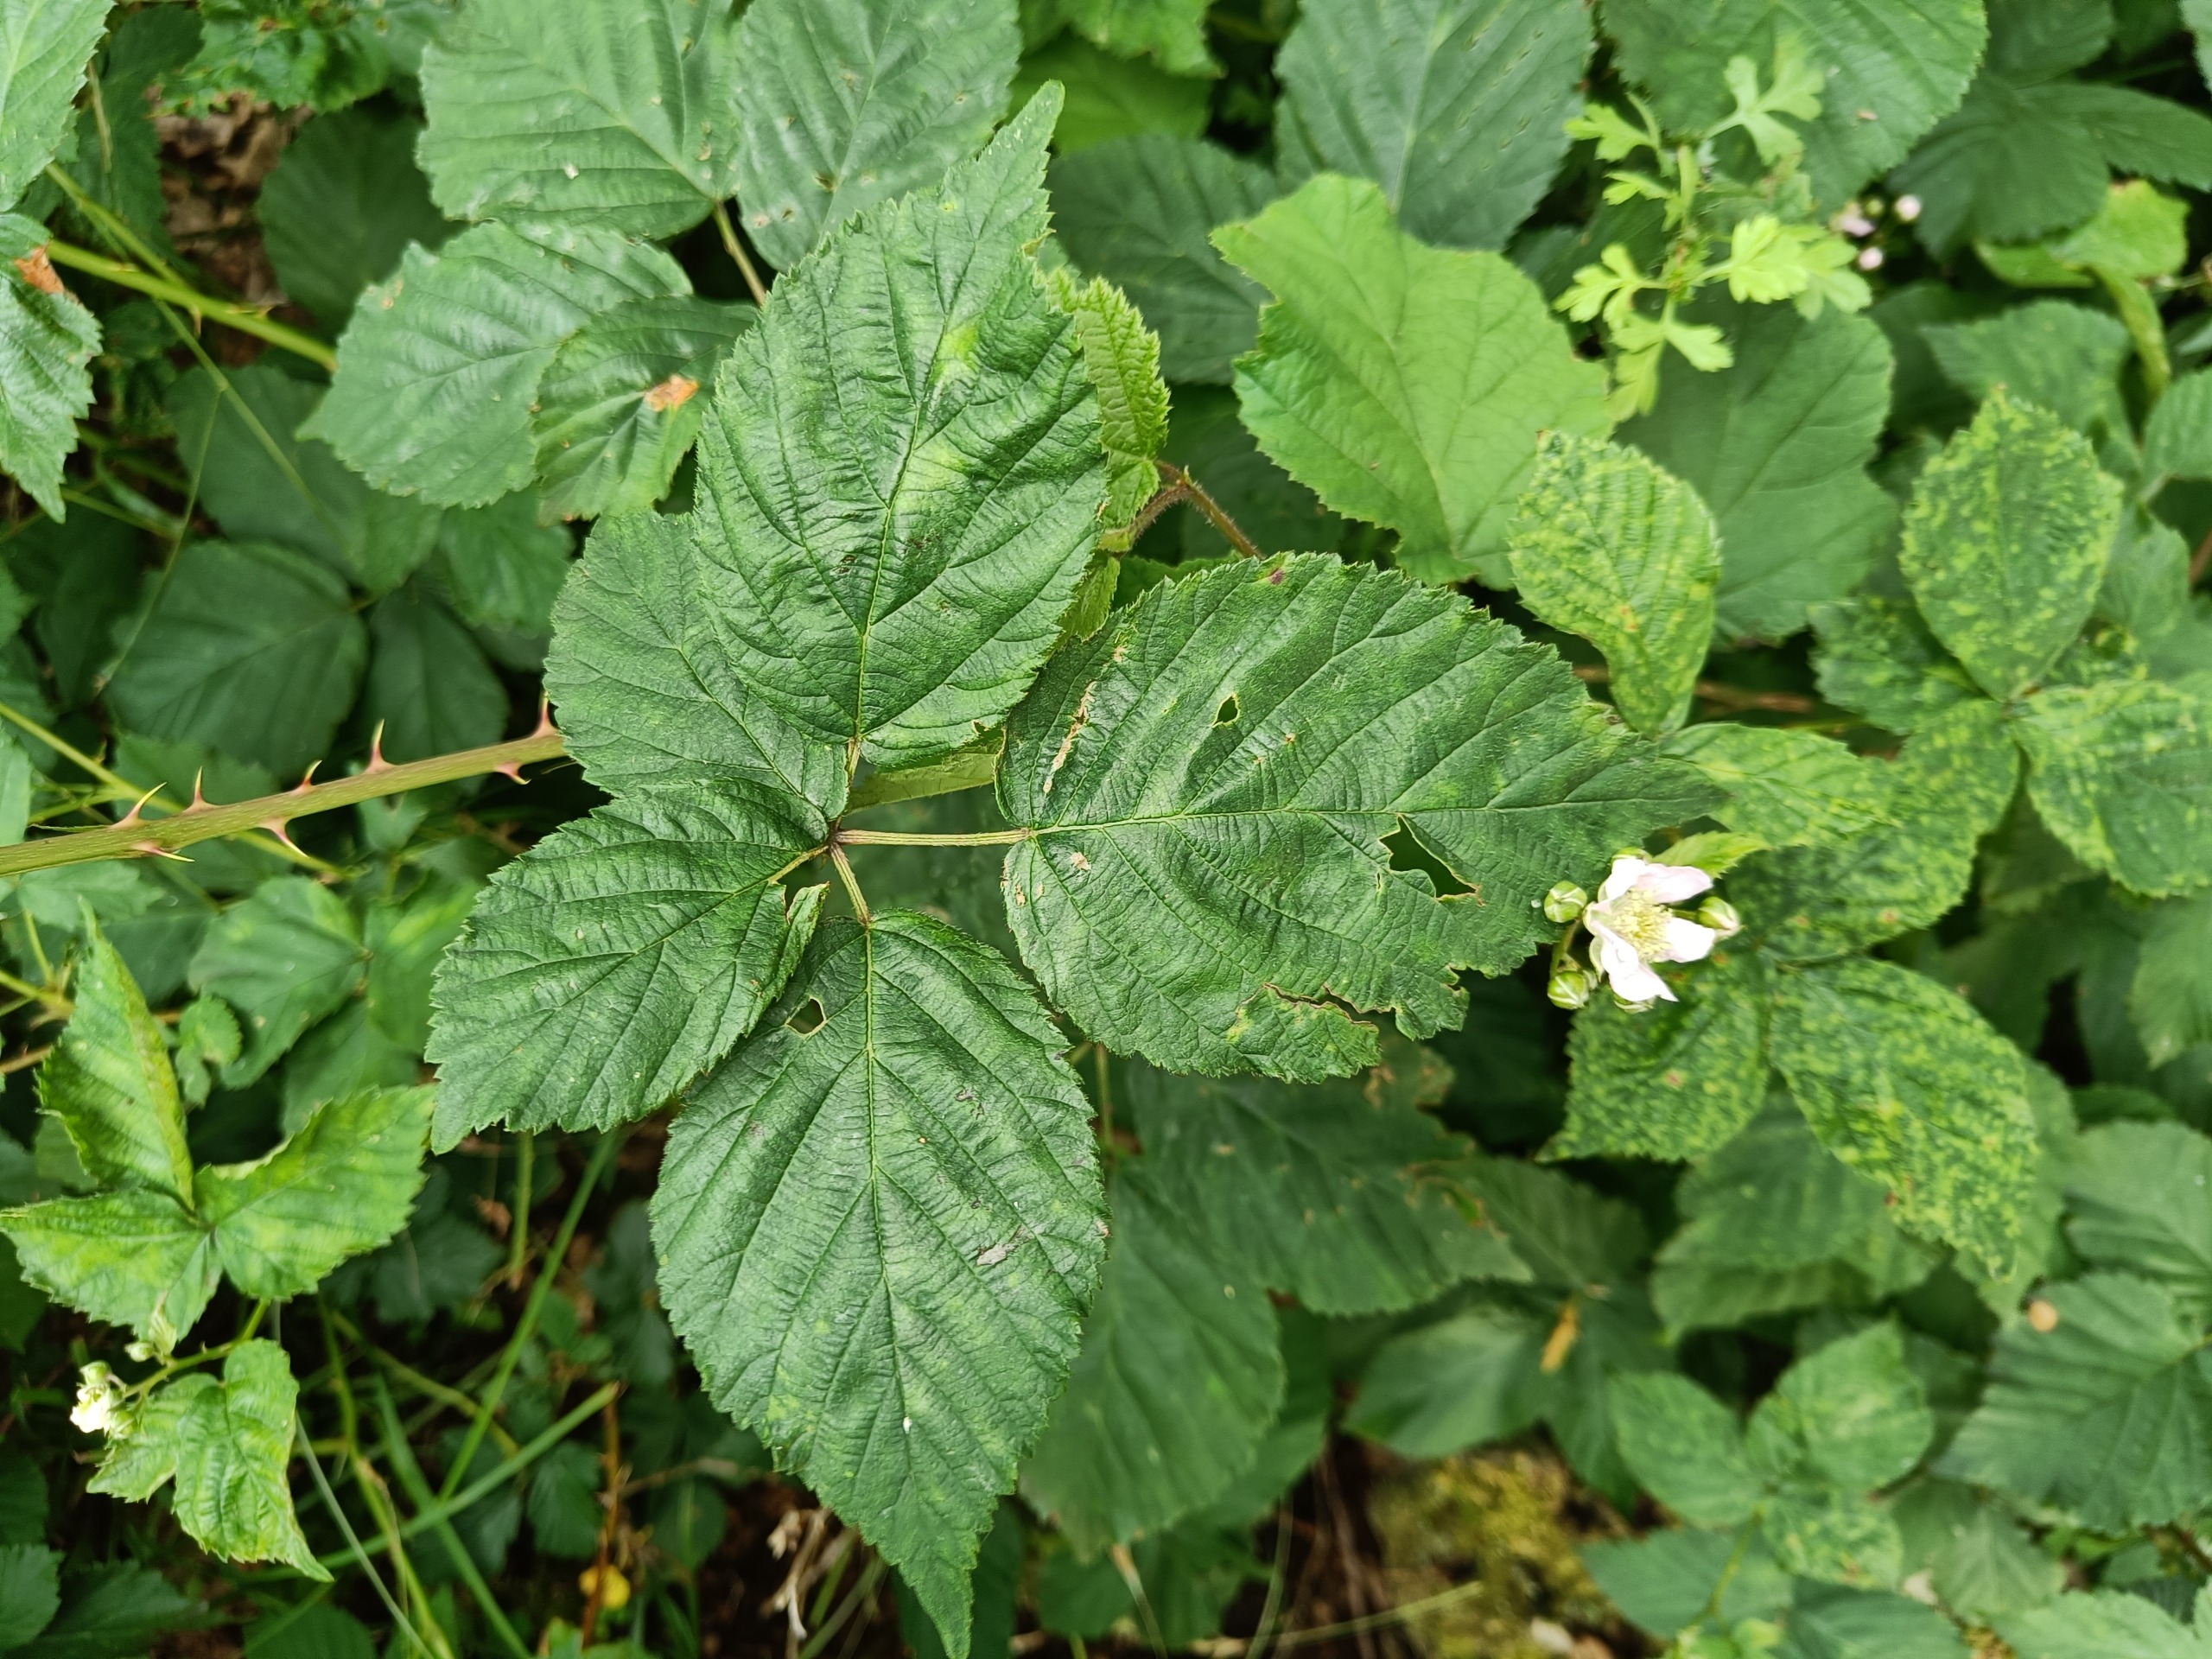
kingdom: Plantae
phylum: Tracheophyta
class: Magnoliopsida
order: Rosales
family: Rosaceae
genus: Rubus
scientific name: Rubus plicatus
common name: Almindelig brombær
